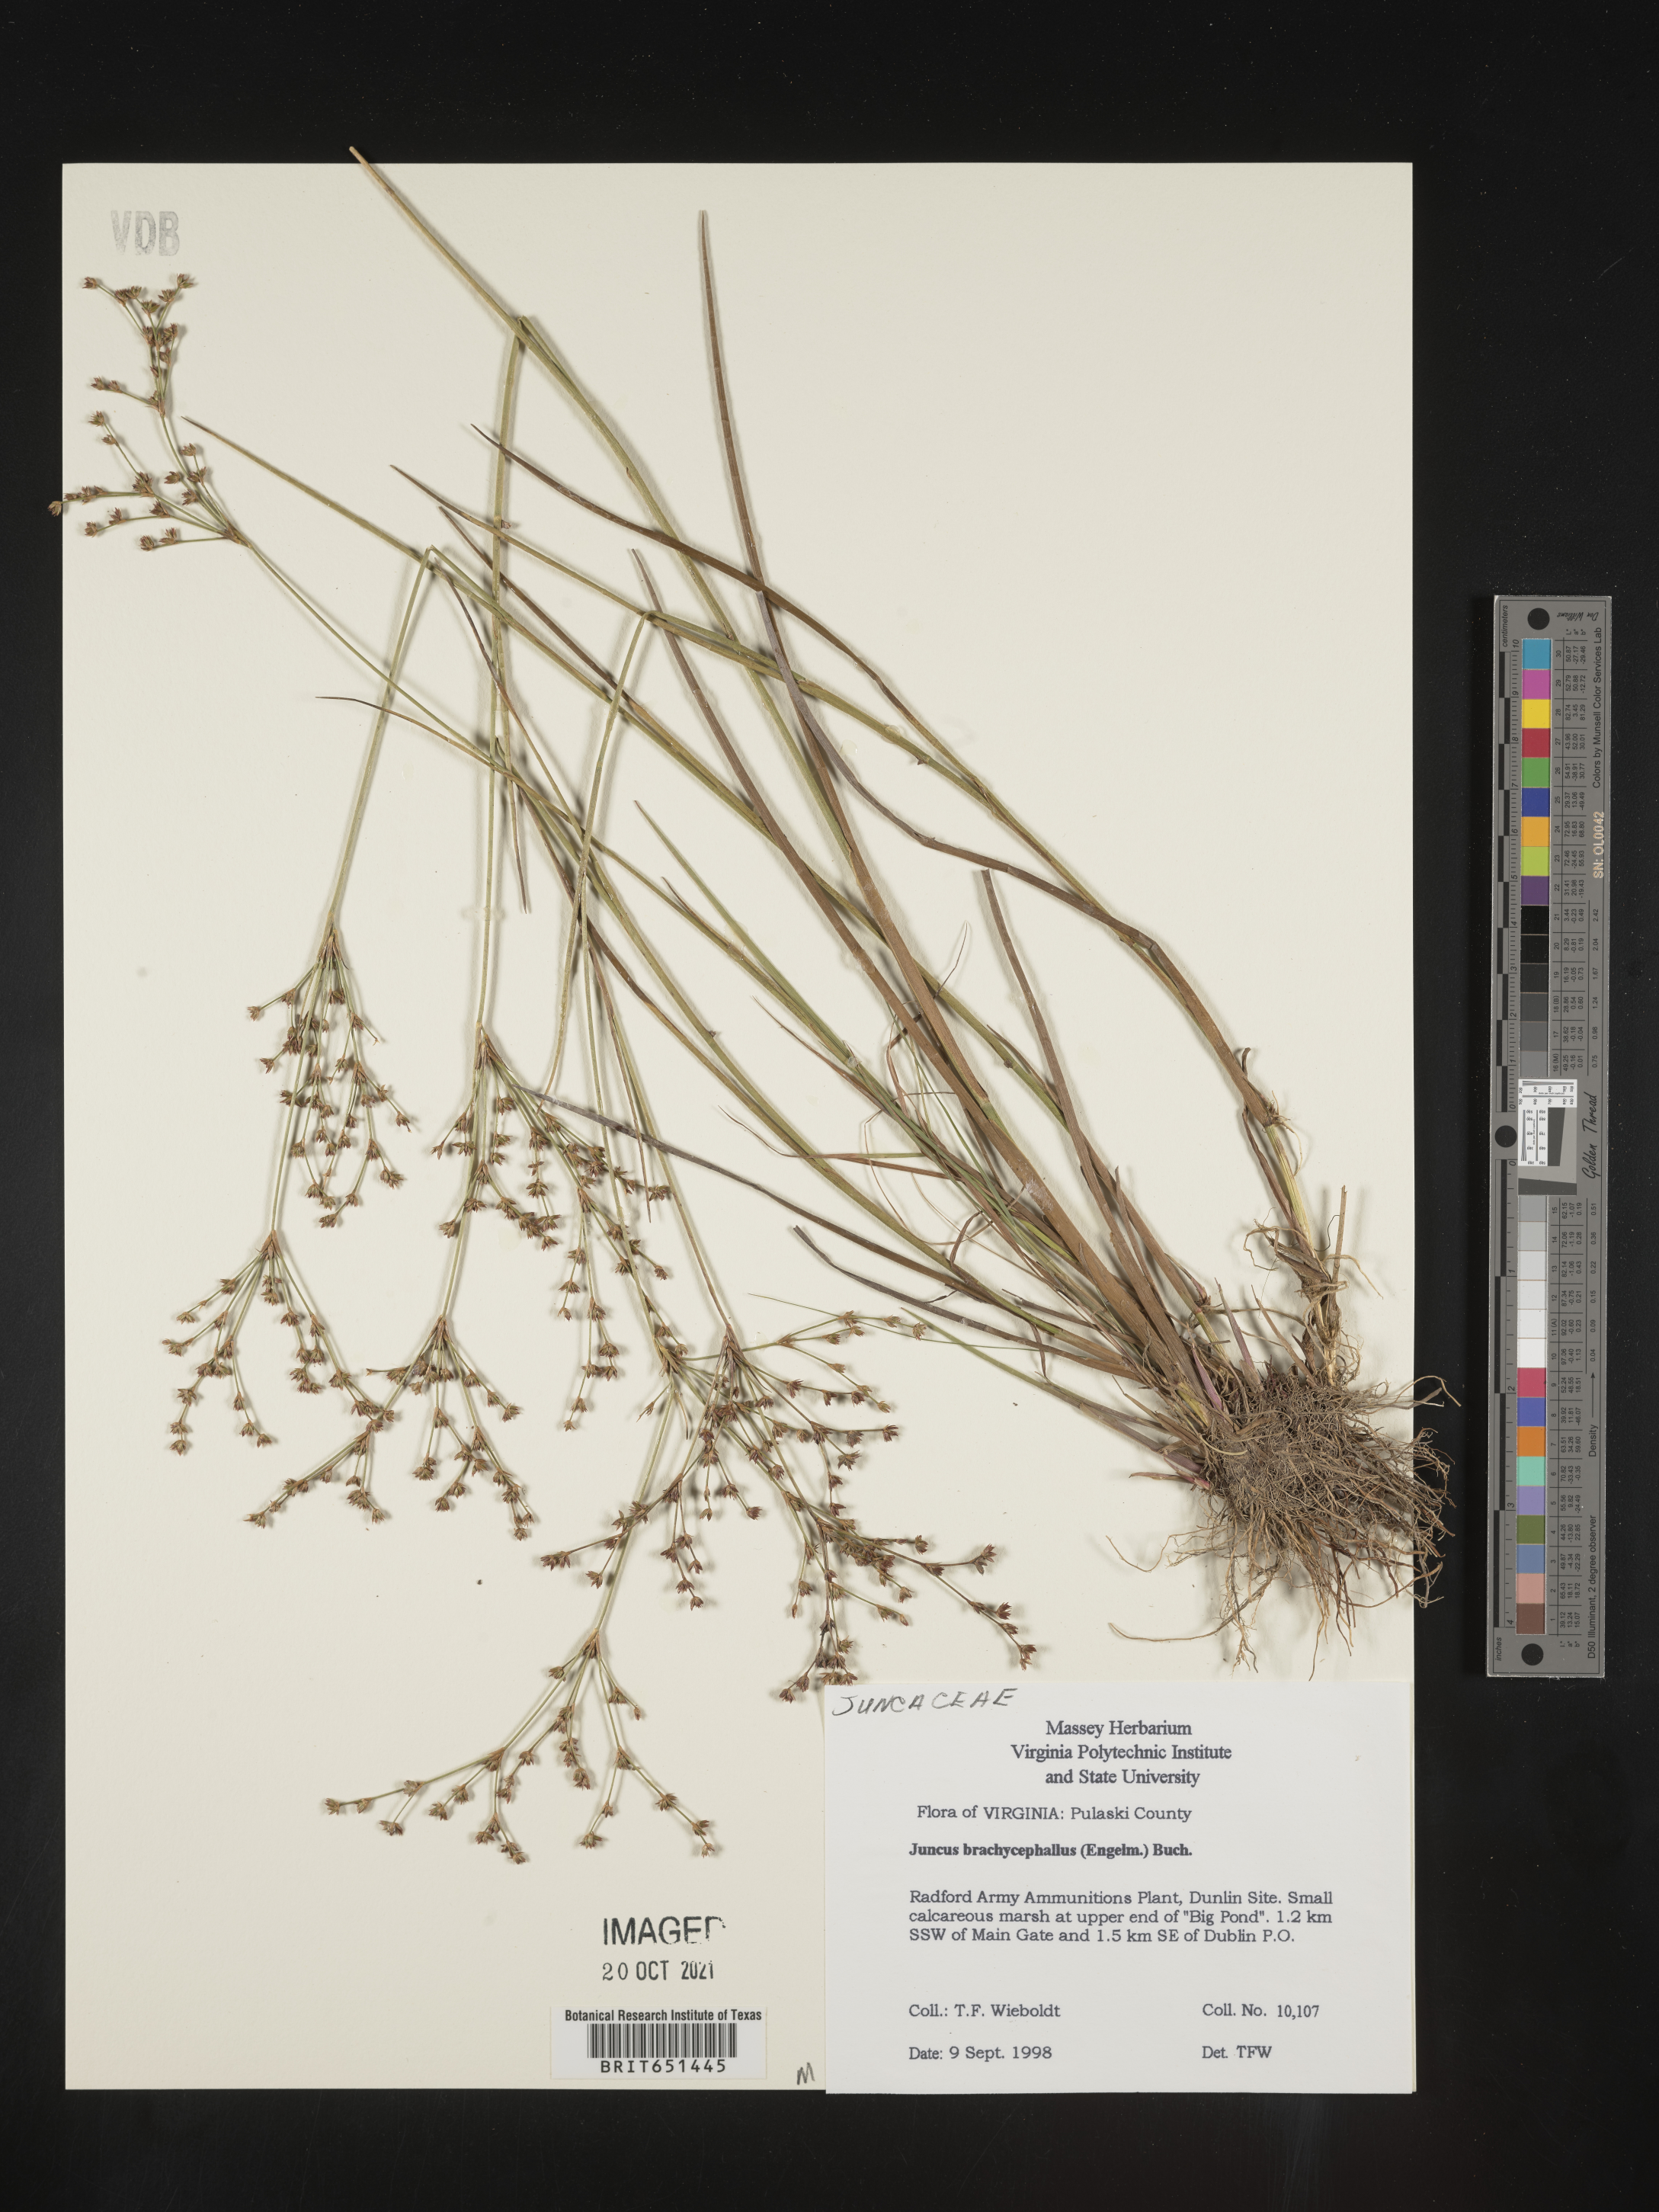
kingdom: Plantae
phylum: Tracheophyta
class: Liliopsida
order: Poales
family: Juncaceae
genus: Juncus
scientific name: Juncus brachycephalus
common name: Short-headed rush
